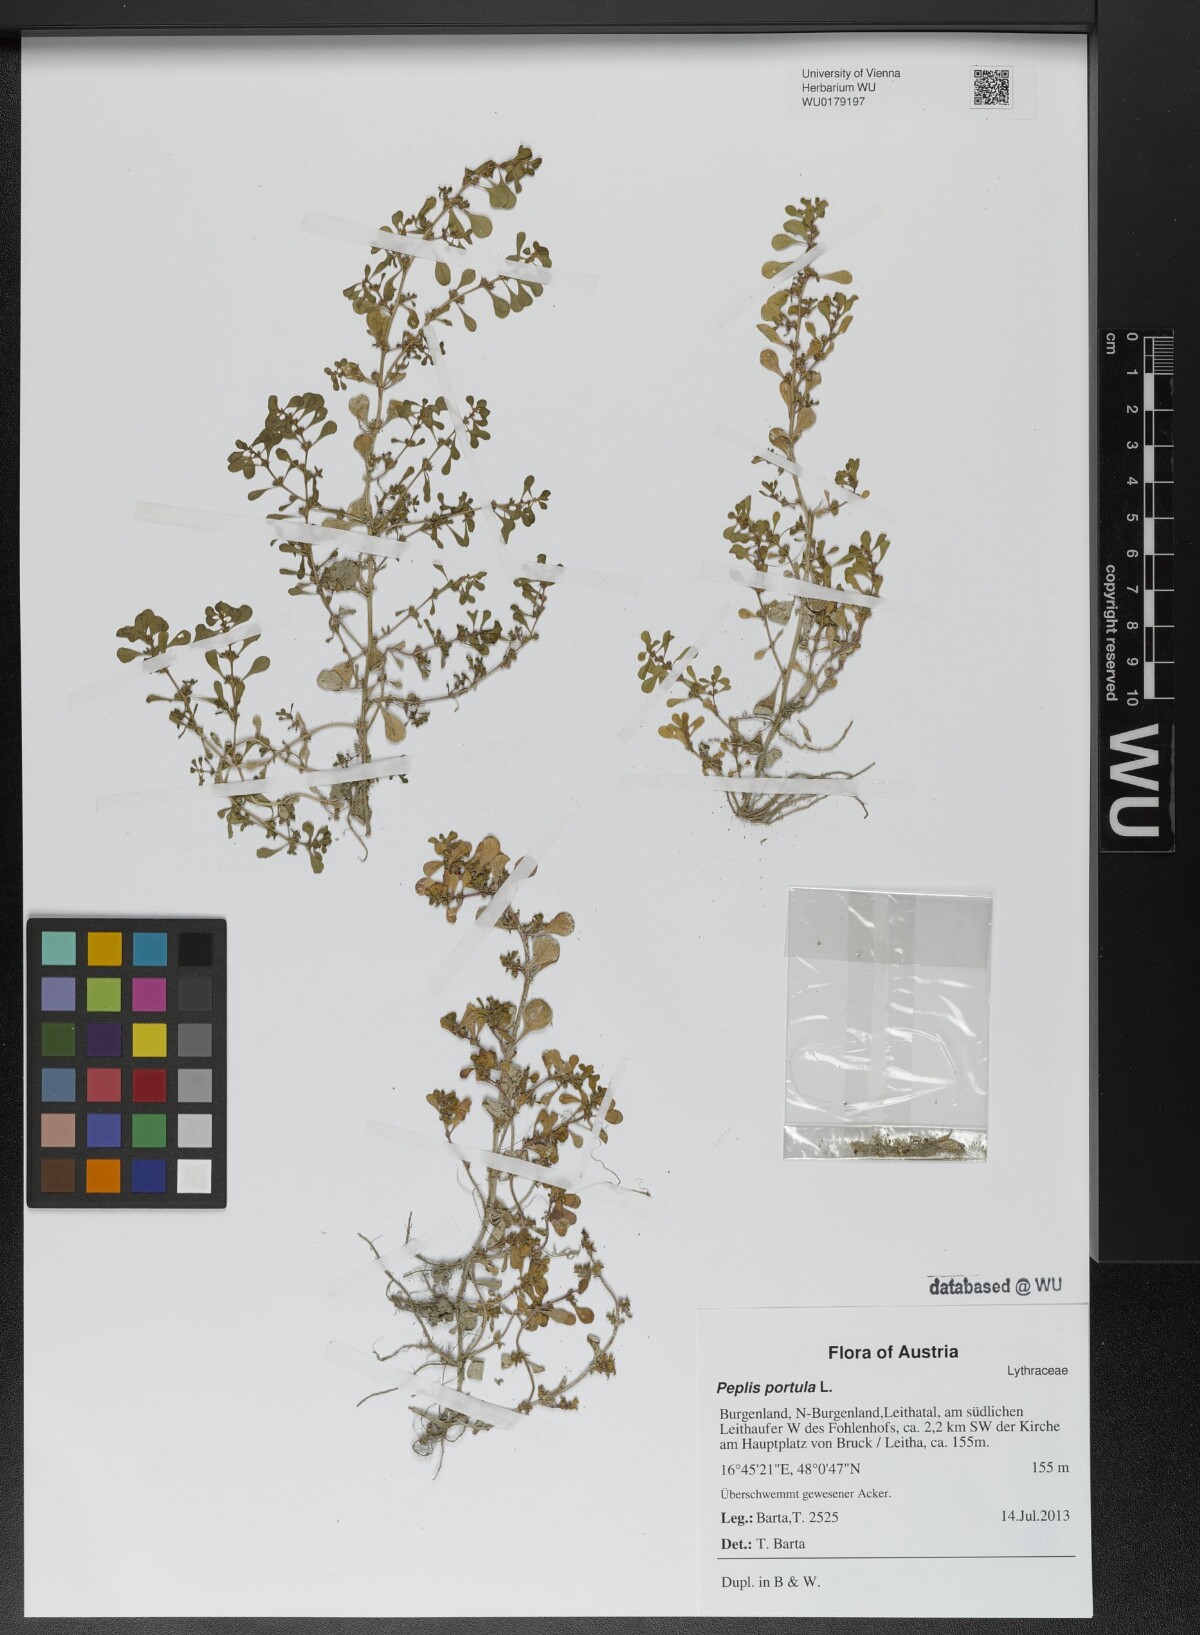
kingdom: Plantae
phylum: Tracheophyta
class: Magnoliopsida
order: Myrtales
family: Lythraceae
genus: Lythrum
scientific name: Lythrum portula
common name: Water purslane
